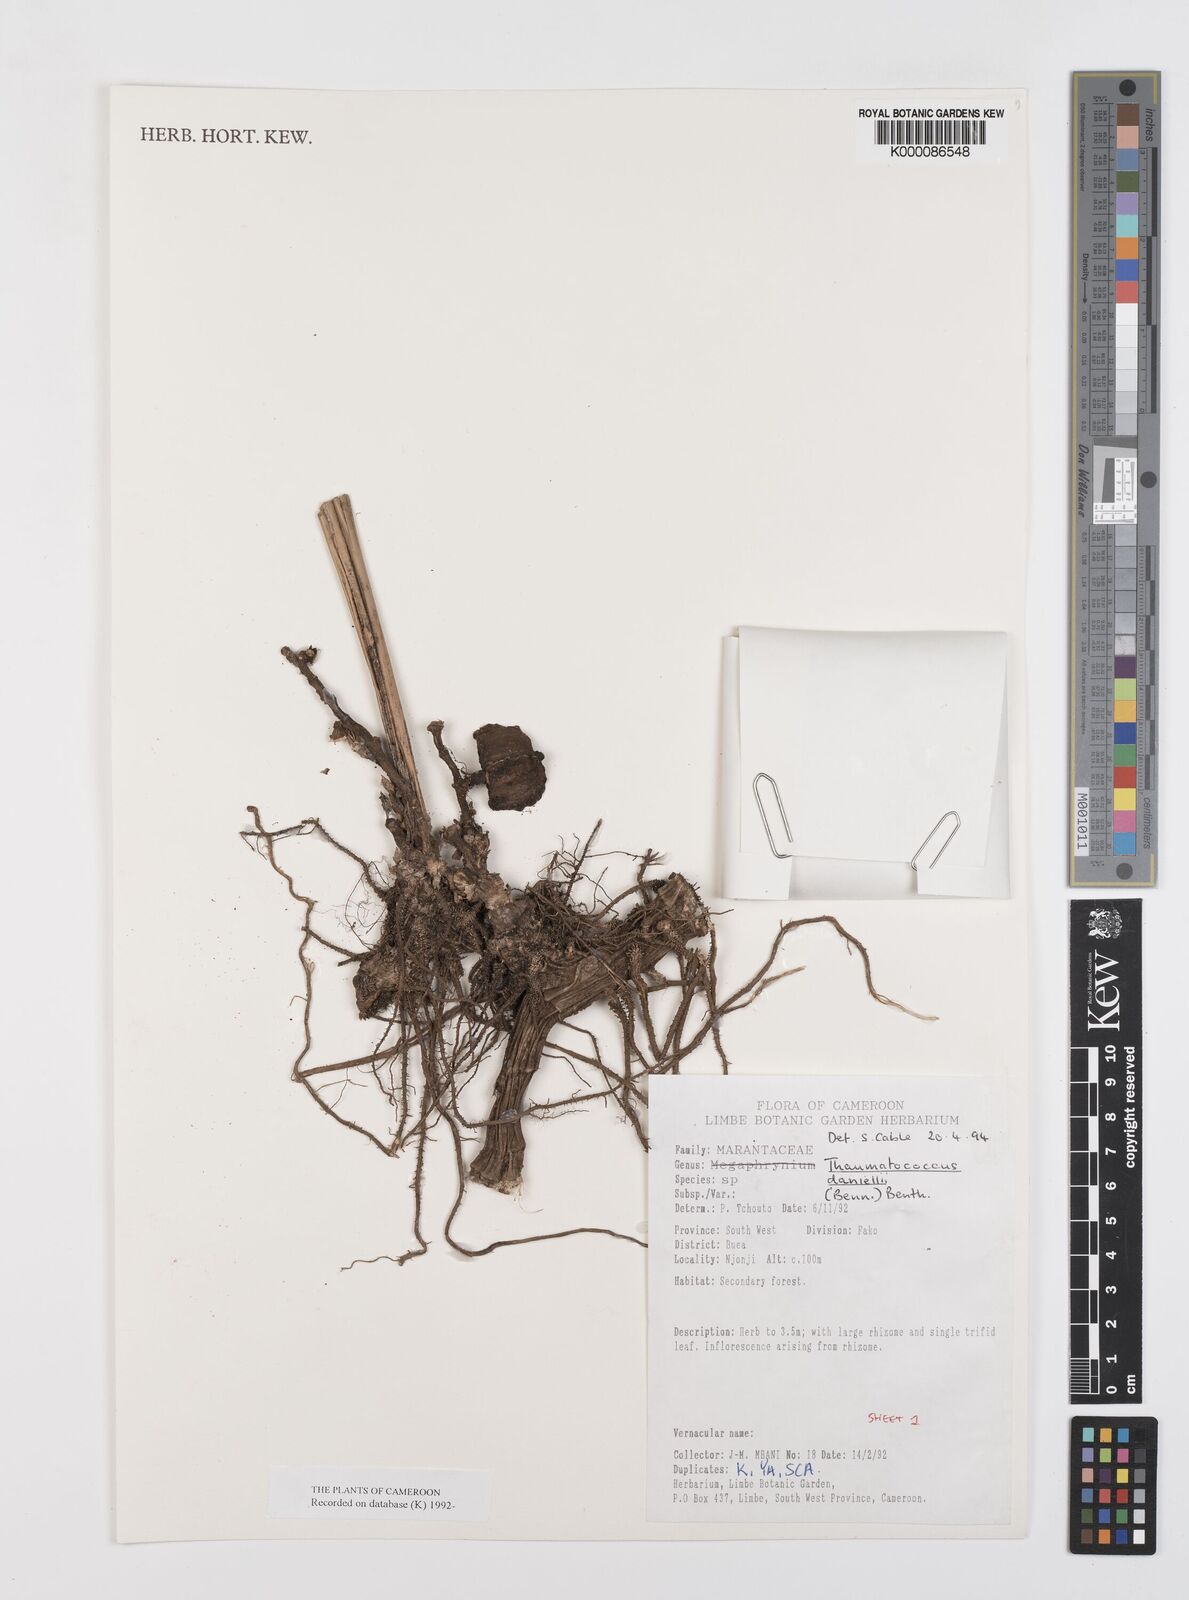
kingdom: Plantae
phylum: Tracheophyta
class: Liliopsida
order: Zingiberales
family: Marantaceae
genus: Thaumatococcus
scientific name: Thaumatococcus
